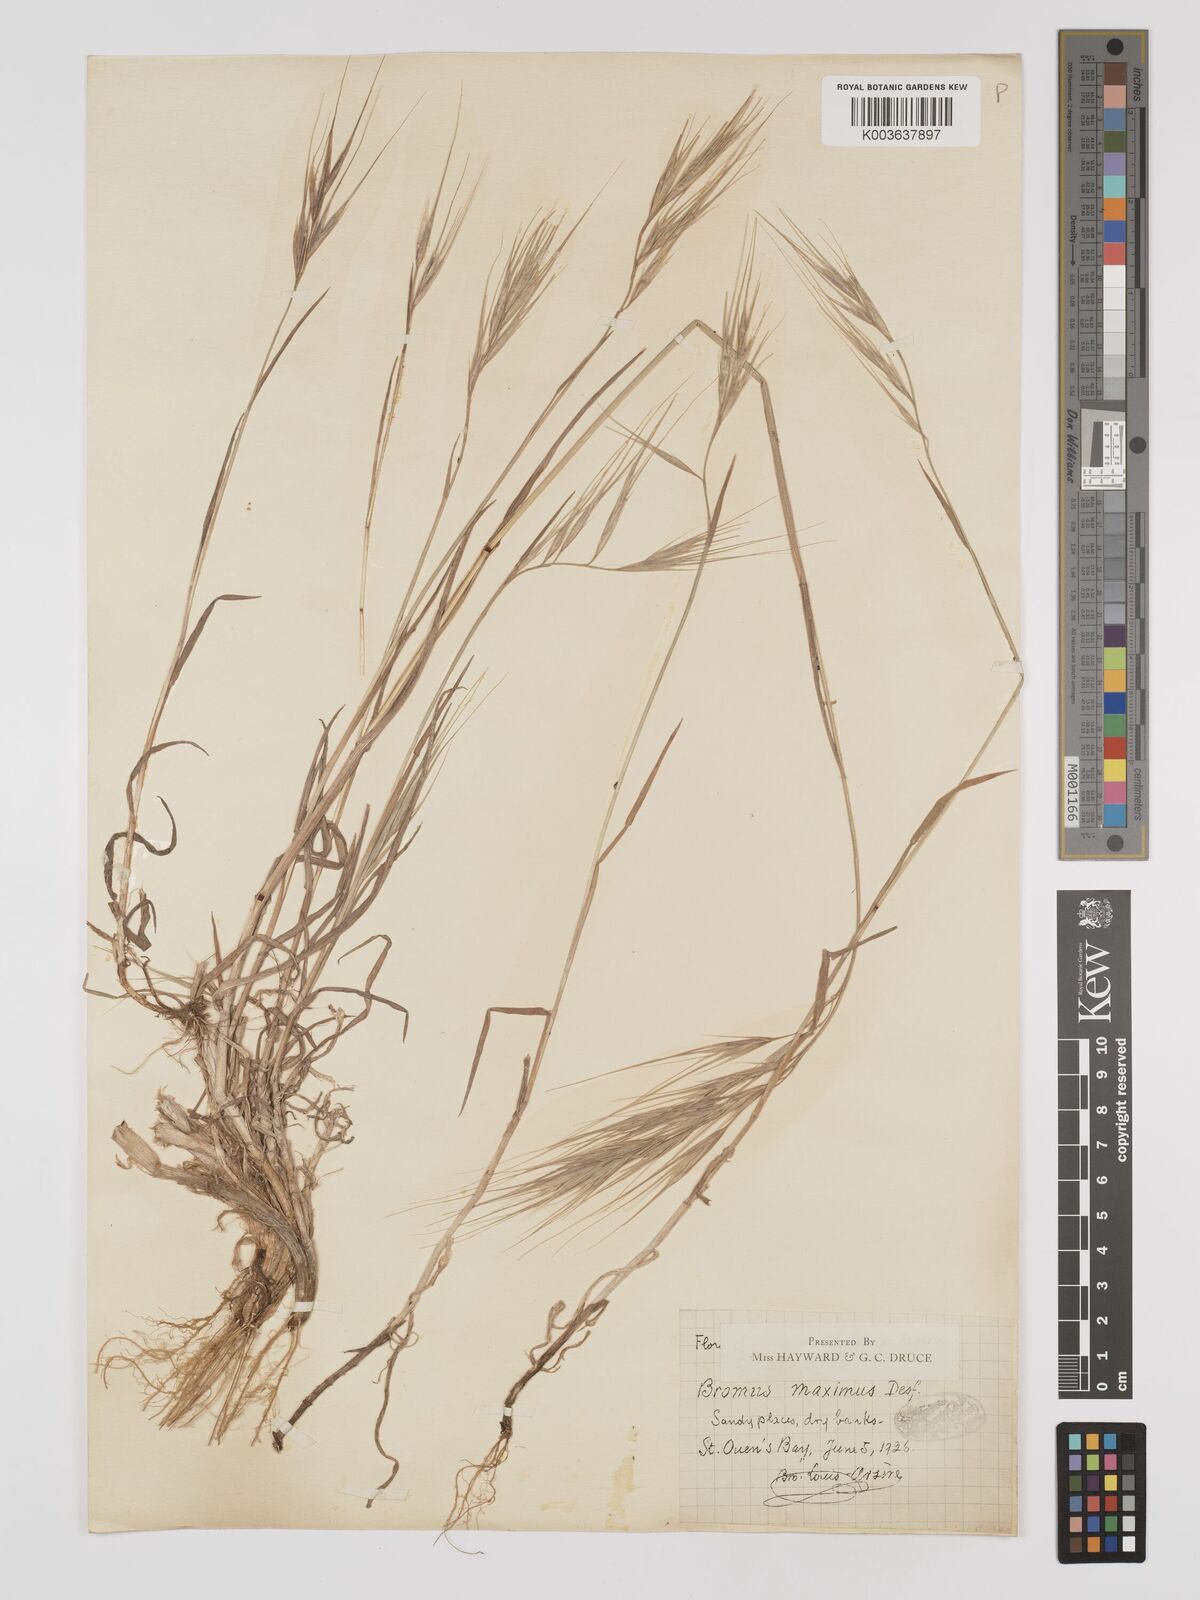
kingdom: Plantae
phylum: Tracheophyta
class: Liliopsida
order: Poales
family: Poaceae
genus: Bromus
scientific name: Bromus
